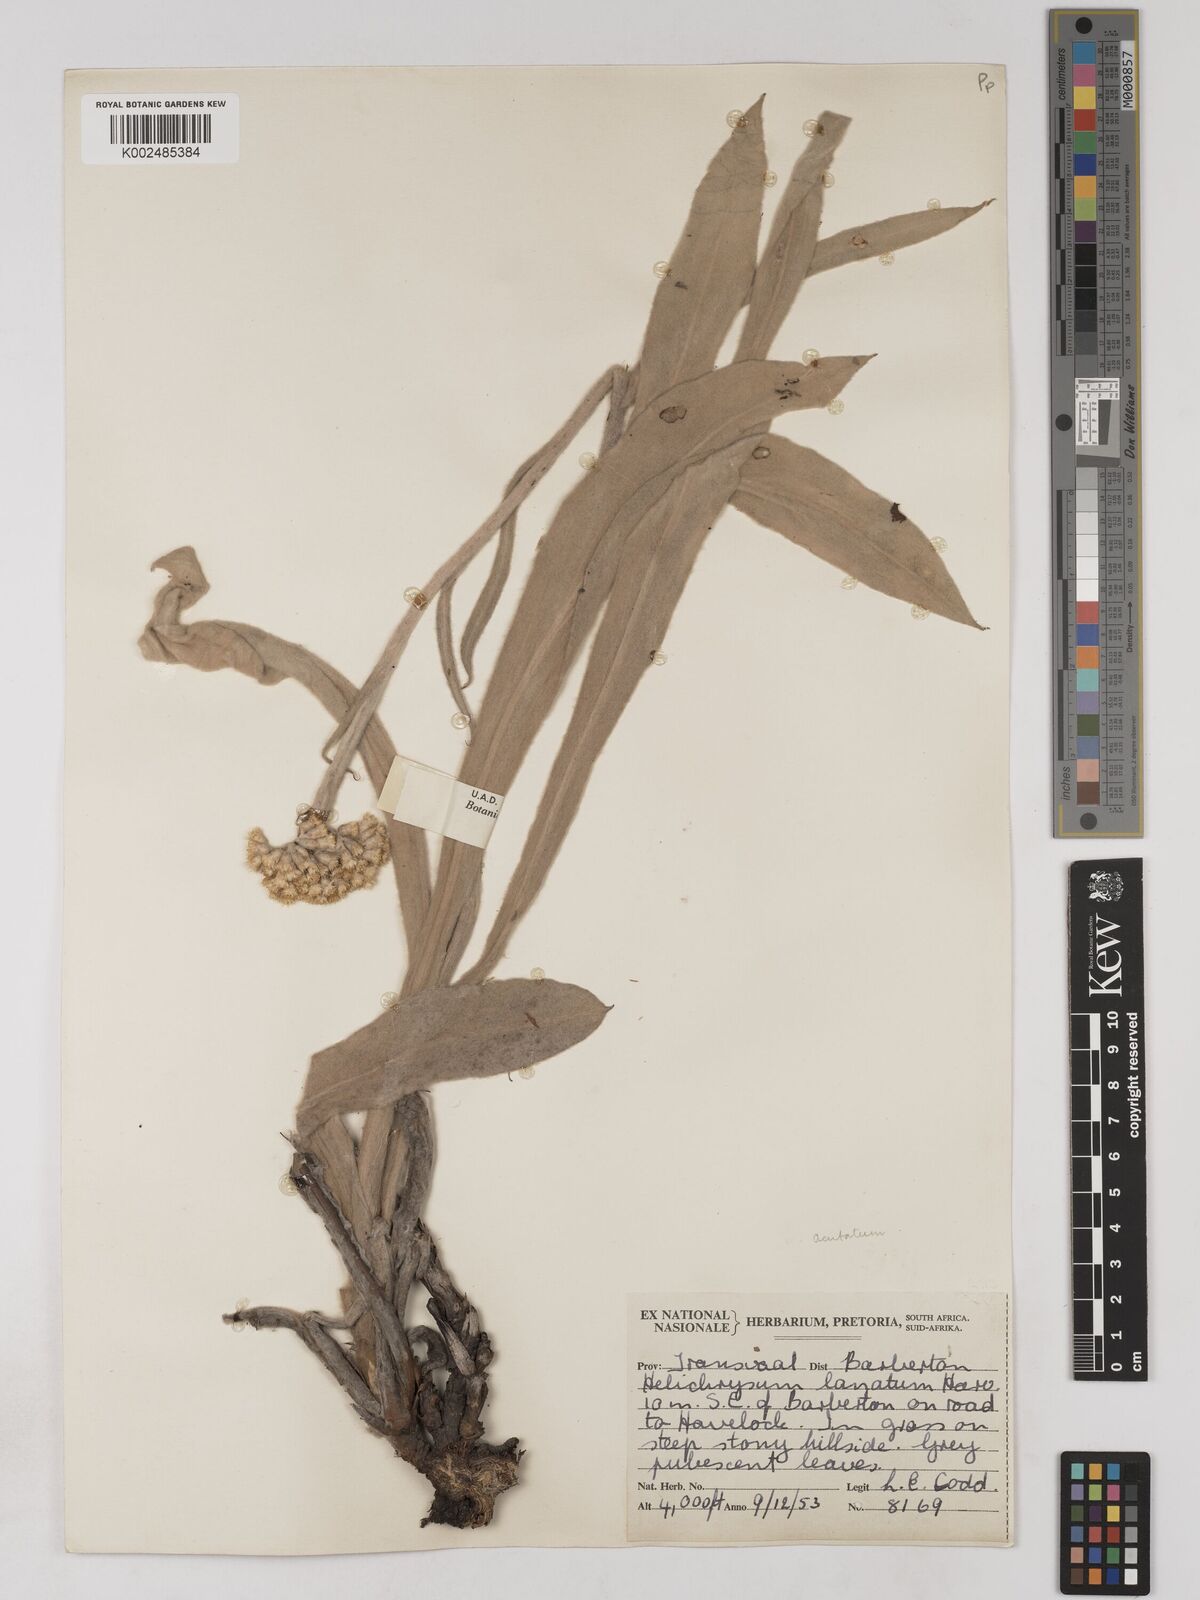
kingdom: Plantae
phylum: Tracheophyta
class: Magnoliopsida
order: Asterales
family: Asteraceae
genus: Helichrysum
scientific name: Helichrysum acutatum
